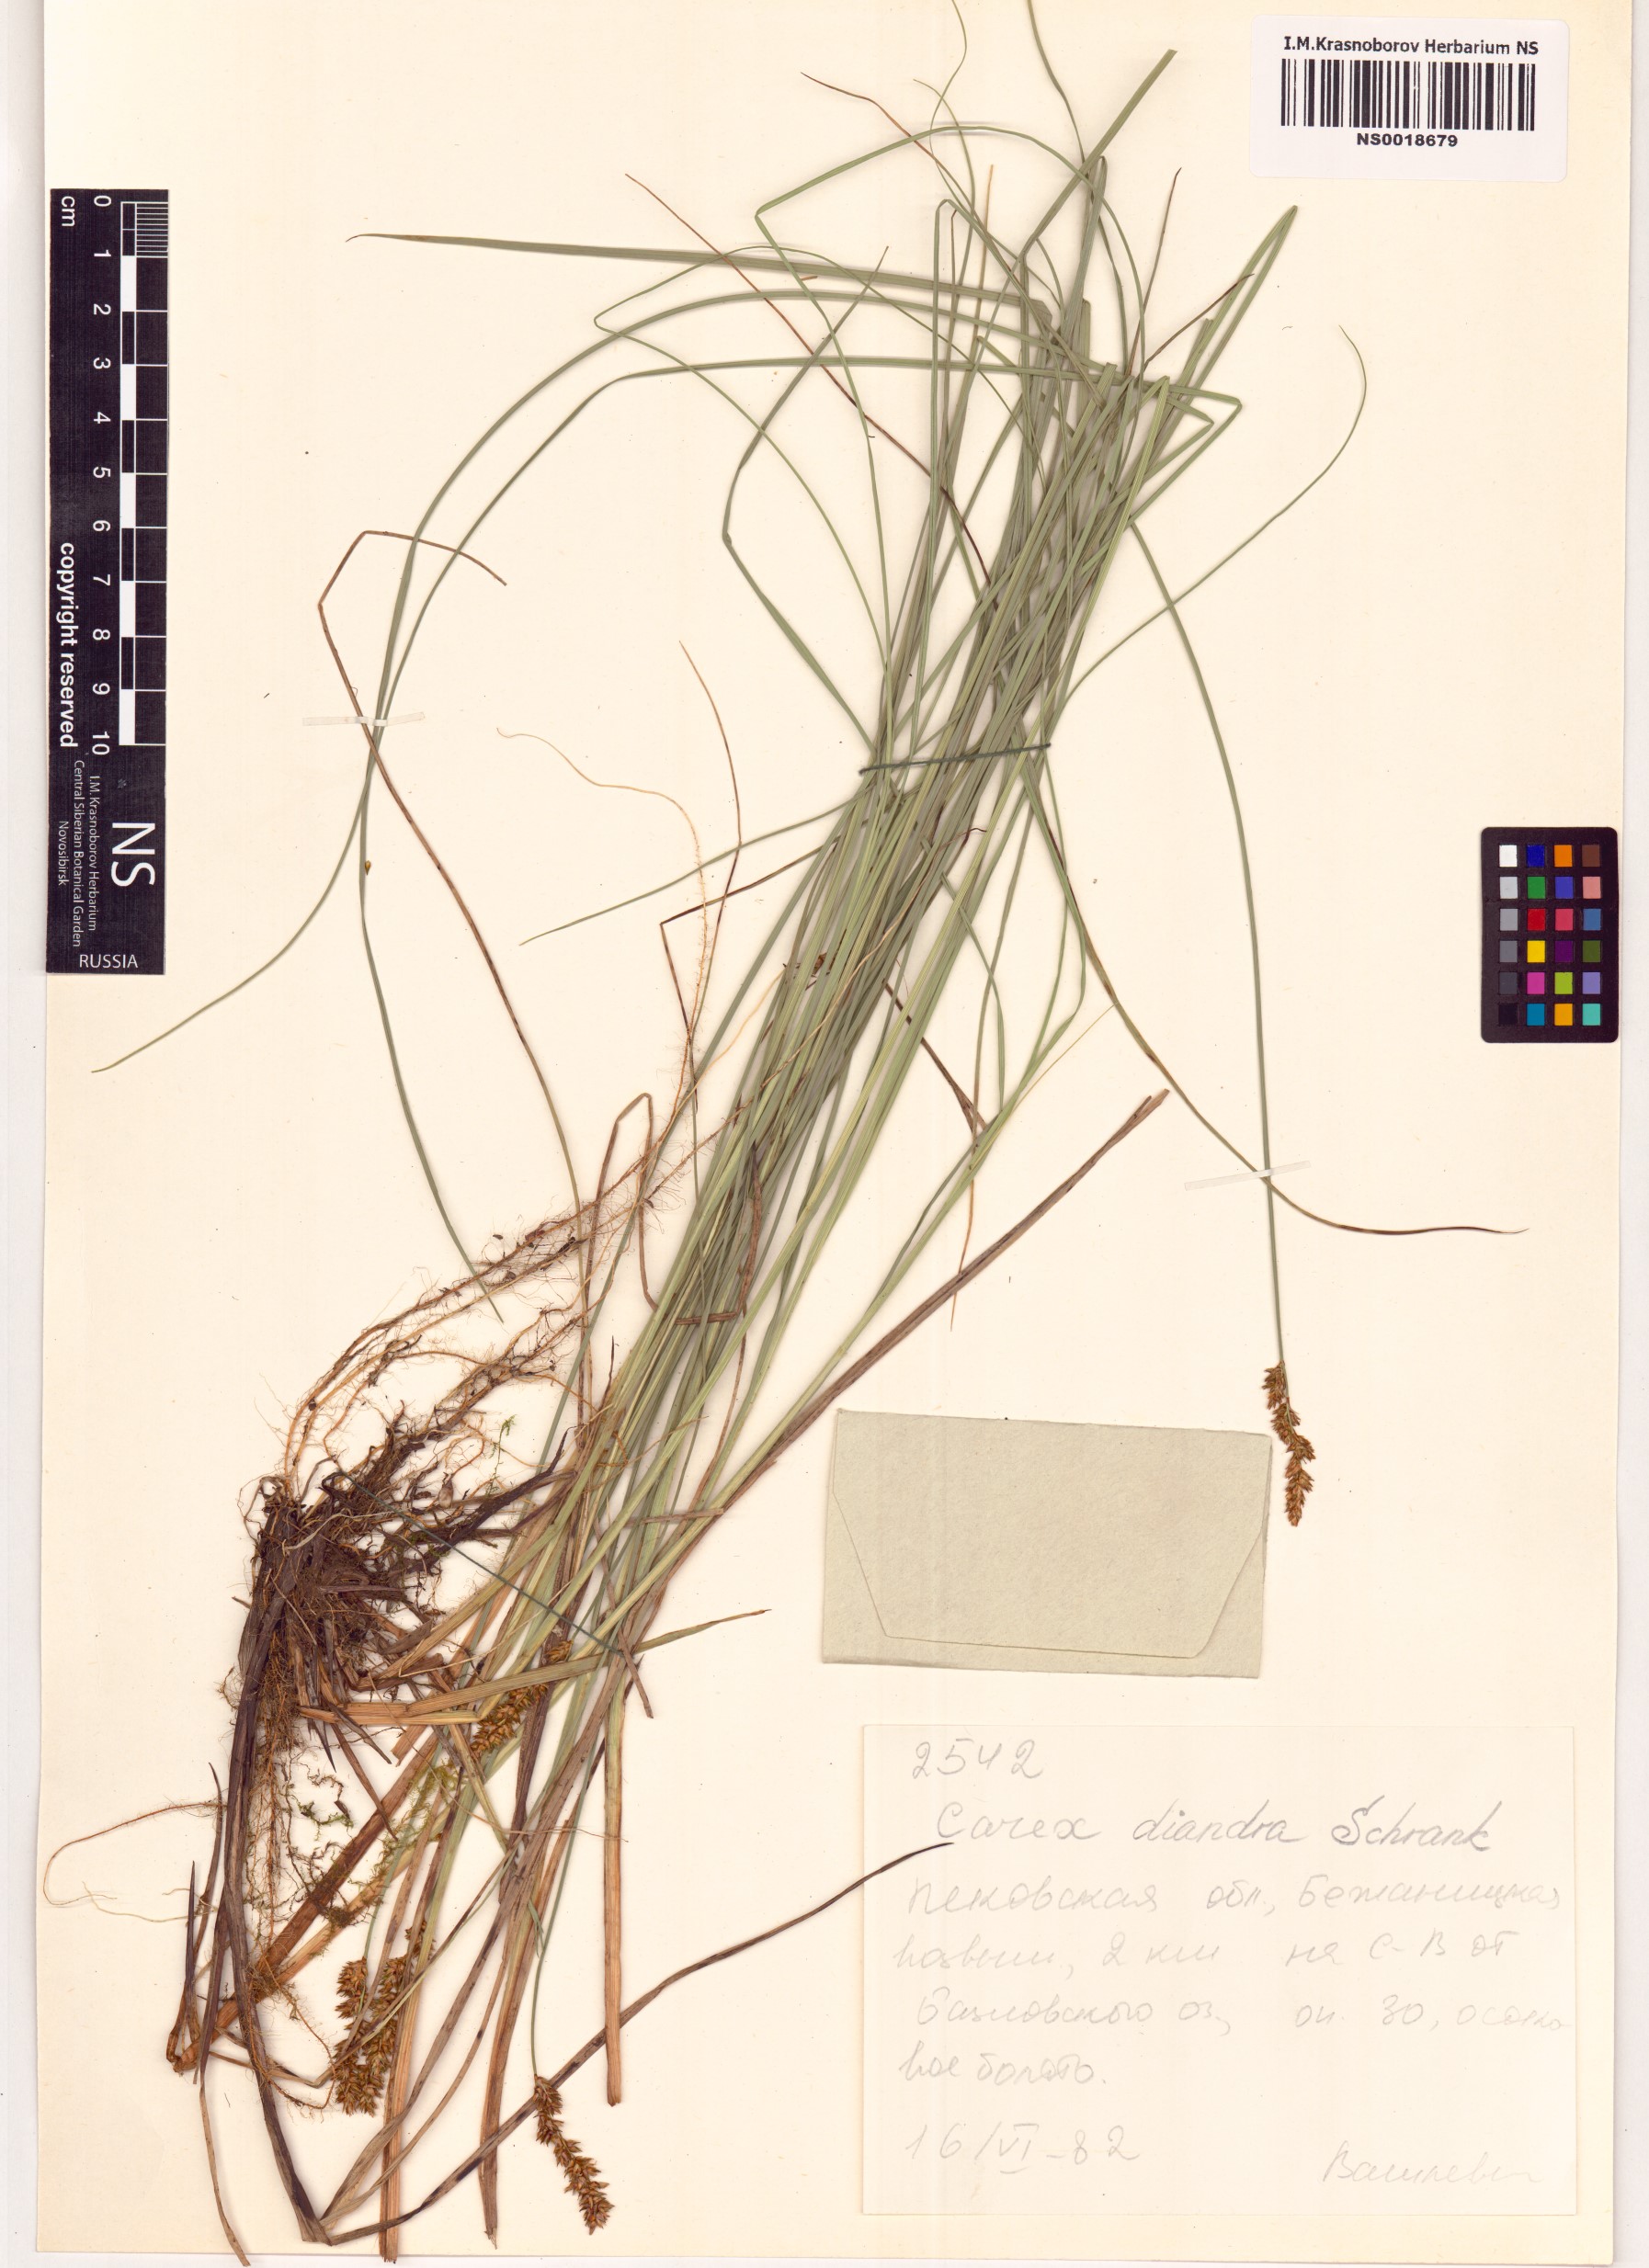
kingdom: Plantae
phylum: Tracheophyta
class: Liliopsida
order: Poales
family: Cyperaceae
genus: Carex
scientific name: Carex diandra
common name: Lesser tussock-sedge
